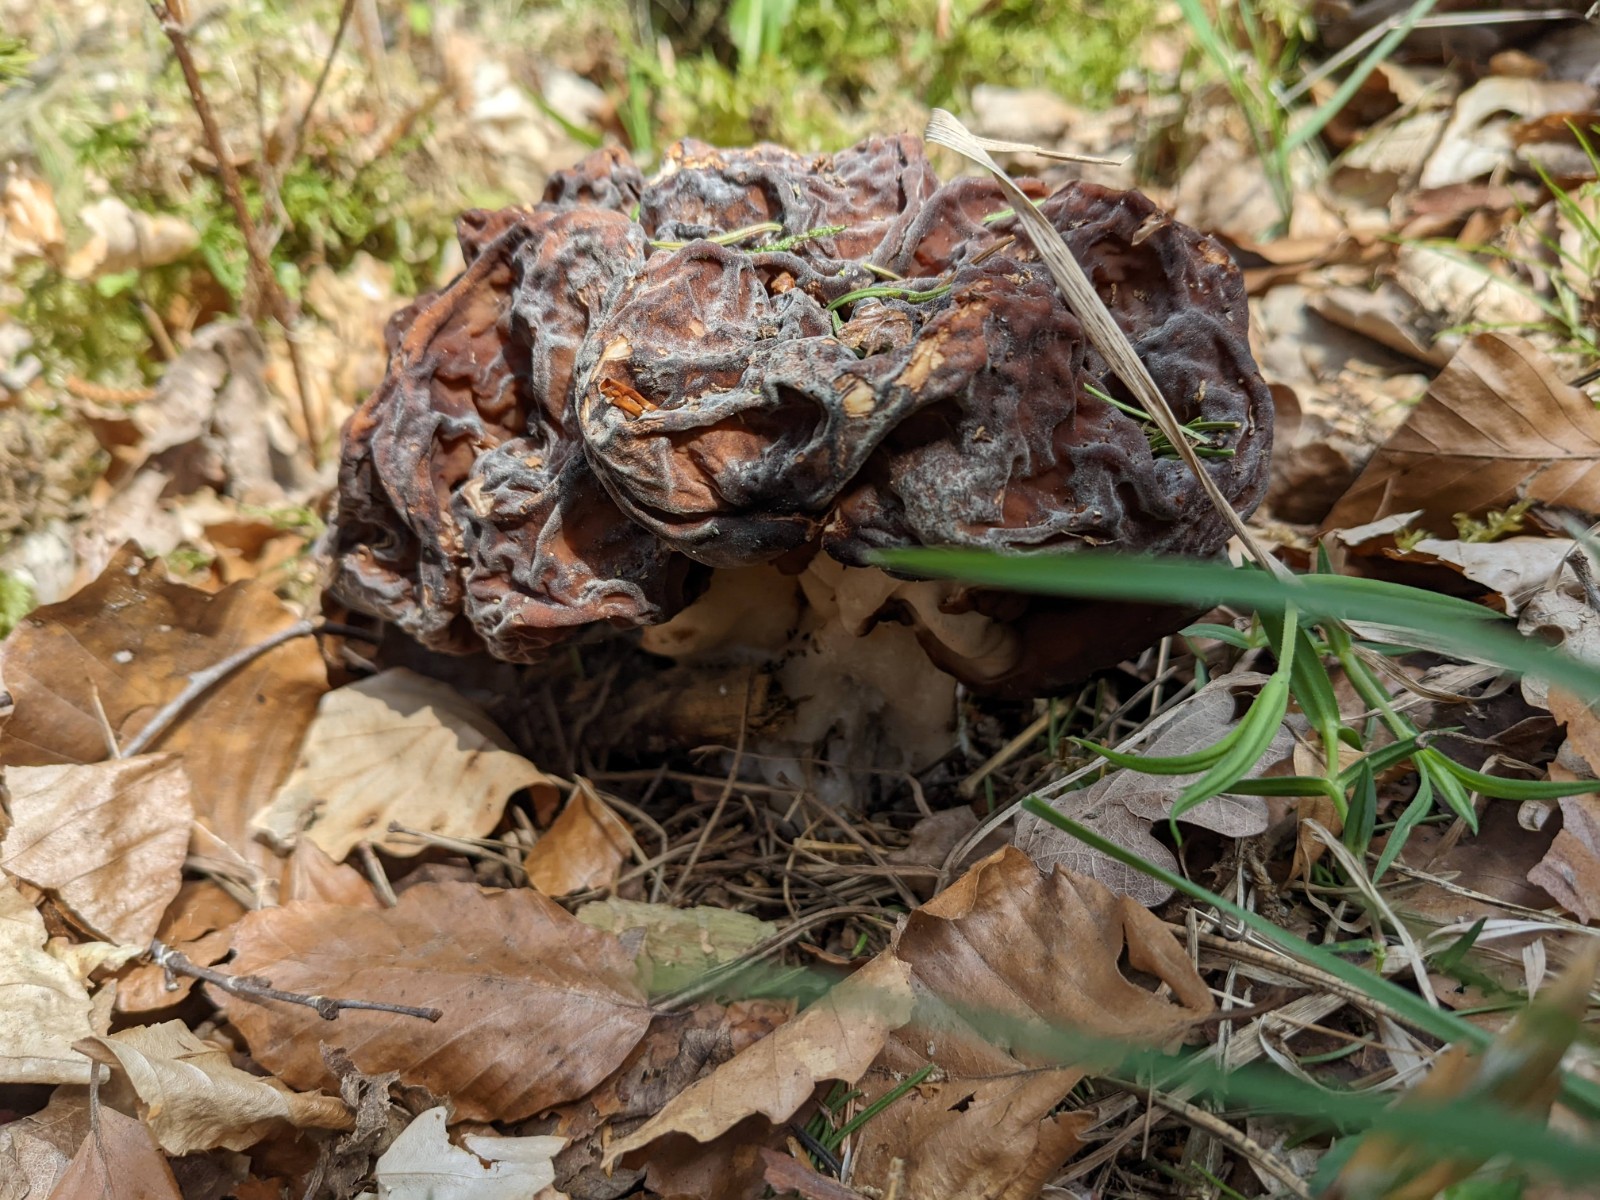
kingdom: Fungi
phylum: Ascomycota
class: Pezizomycetes
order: Pezizales
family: Discinaceae
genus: Gyromitra
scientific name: Gyromitra esculenta
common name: ægte stenmorkel
